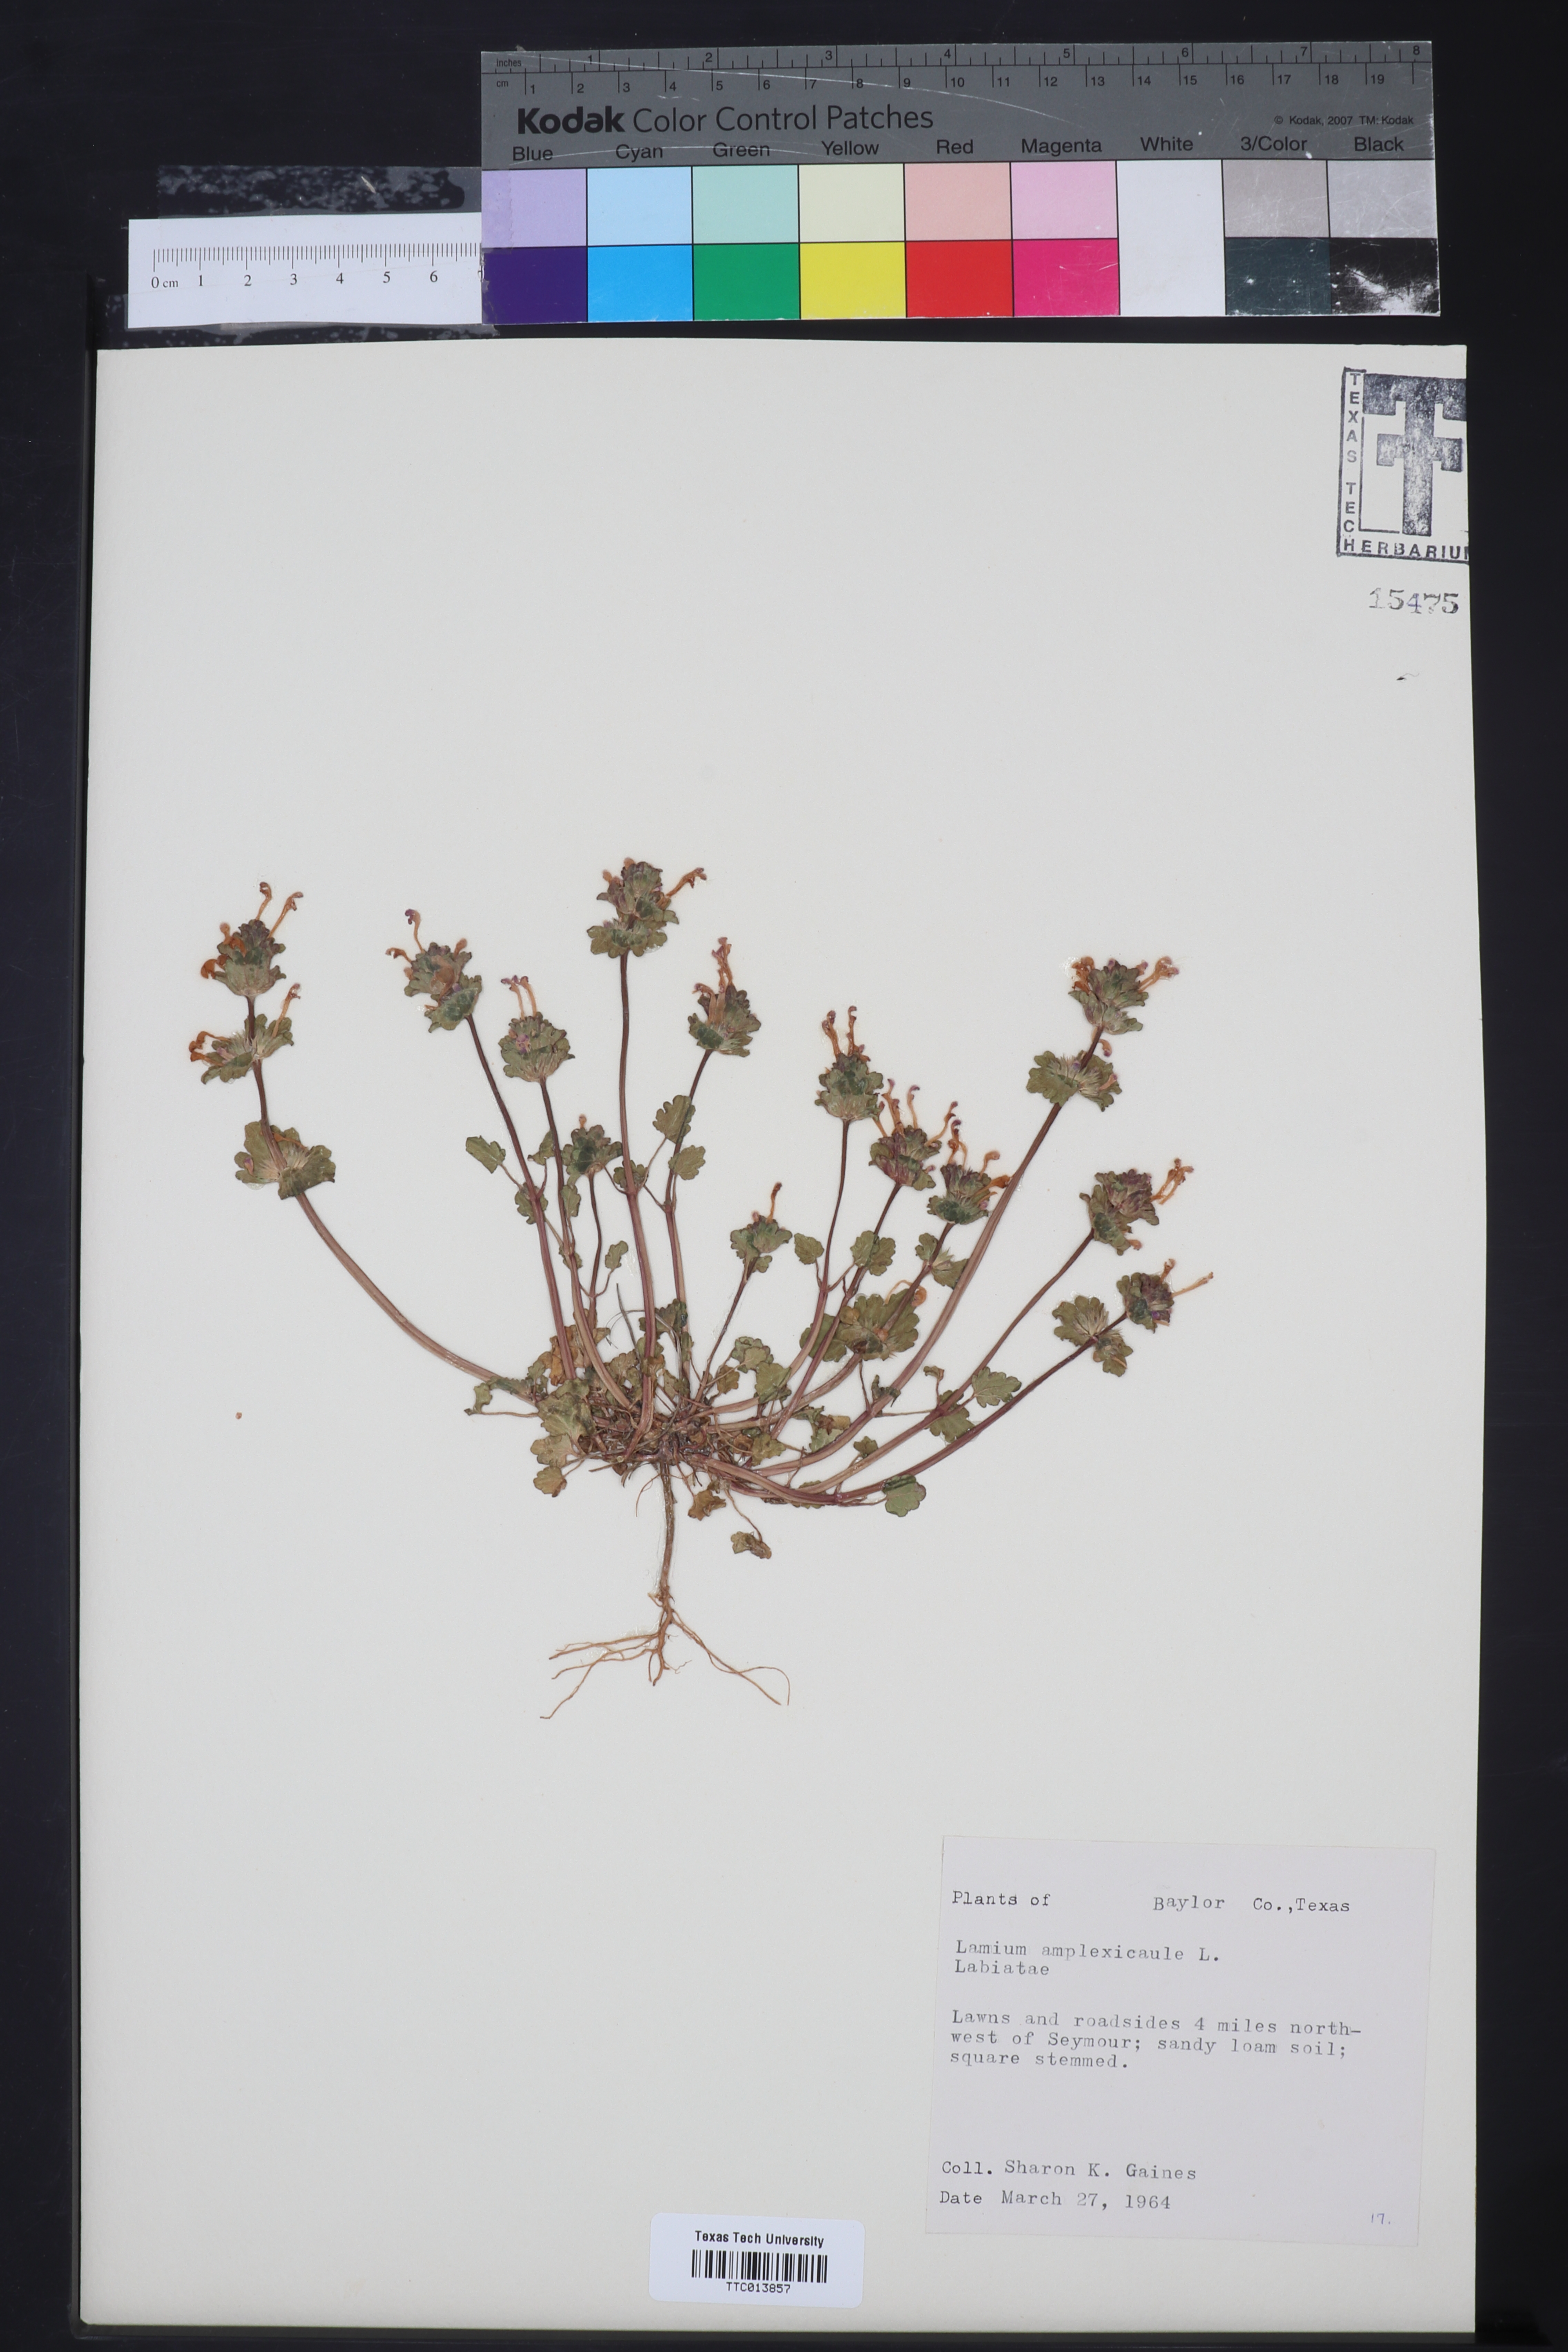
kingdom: Plantae
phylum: Tracheophyta
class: Magnoliopsida
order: Lamiales
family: Lamiaceae
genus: Lamium
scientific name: Lamium amplexicaule
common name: Henbit dead-nettle
